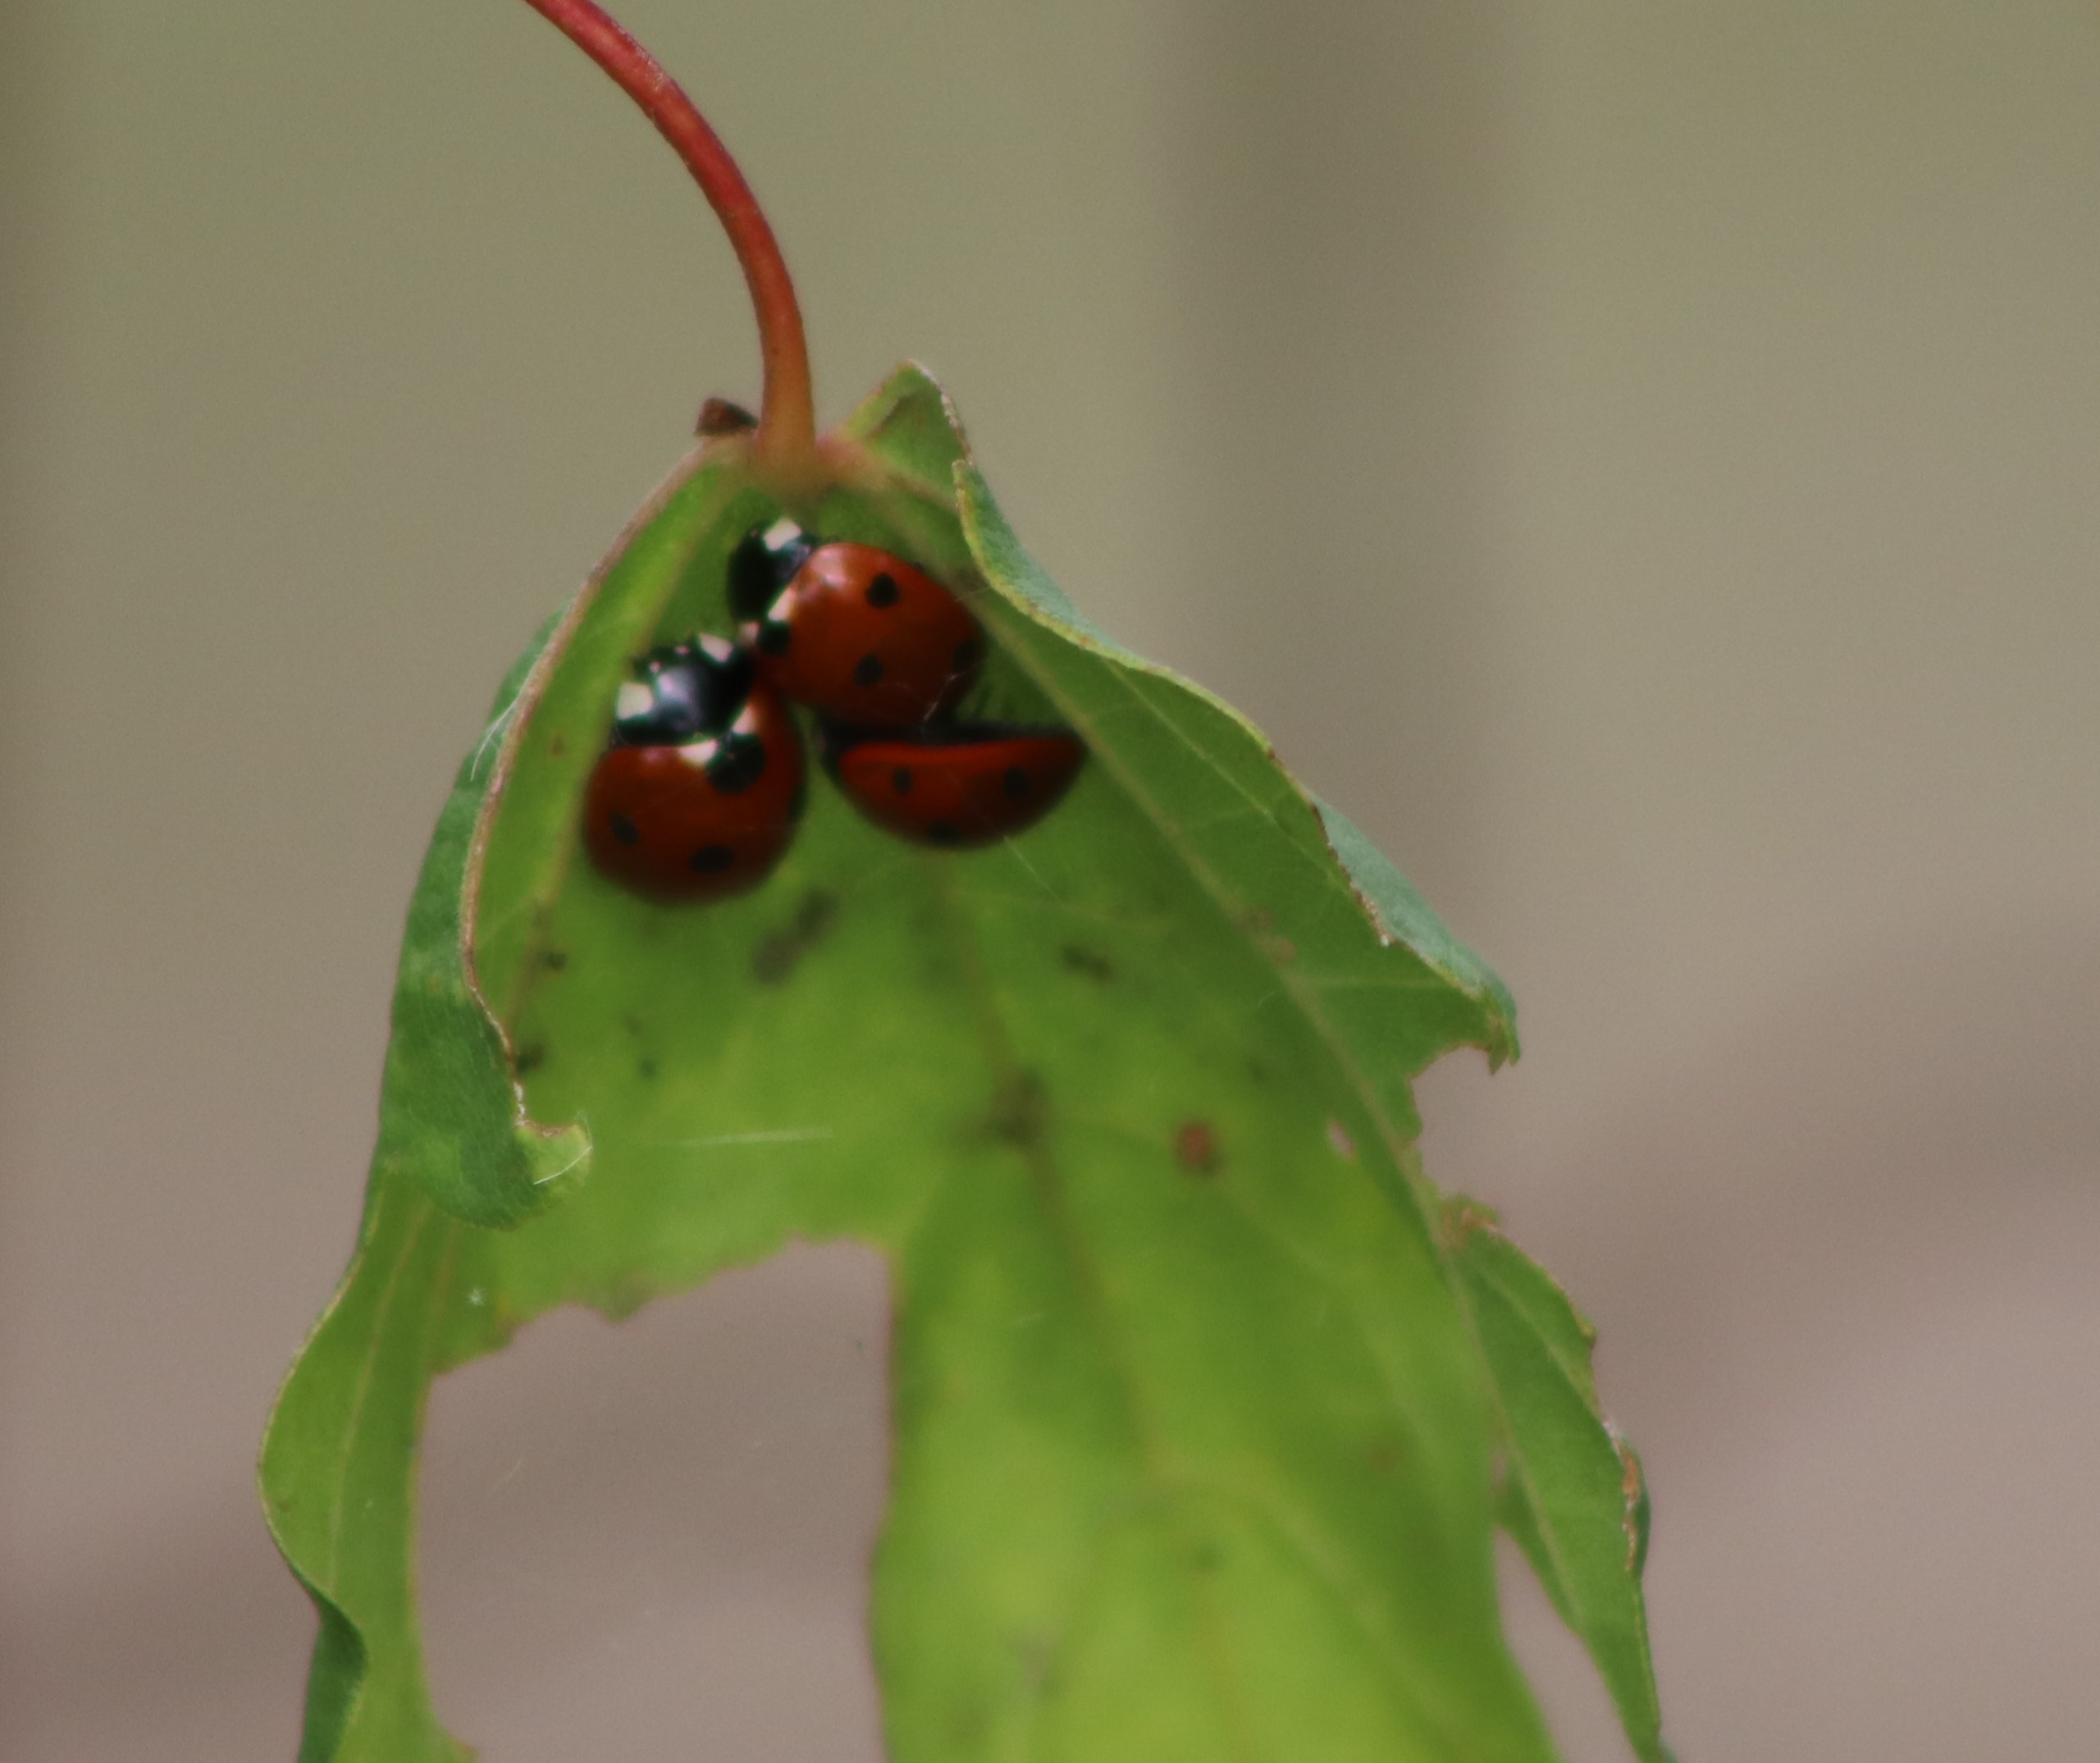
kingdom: Animalia
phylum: Arthropoda
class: Insecta
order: Coleoptera
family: Coccinellidae
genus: Coccinella
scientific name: Coccinella septempunctata
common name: Syvplettet mariehøne
